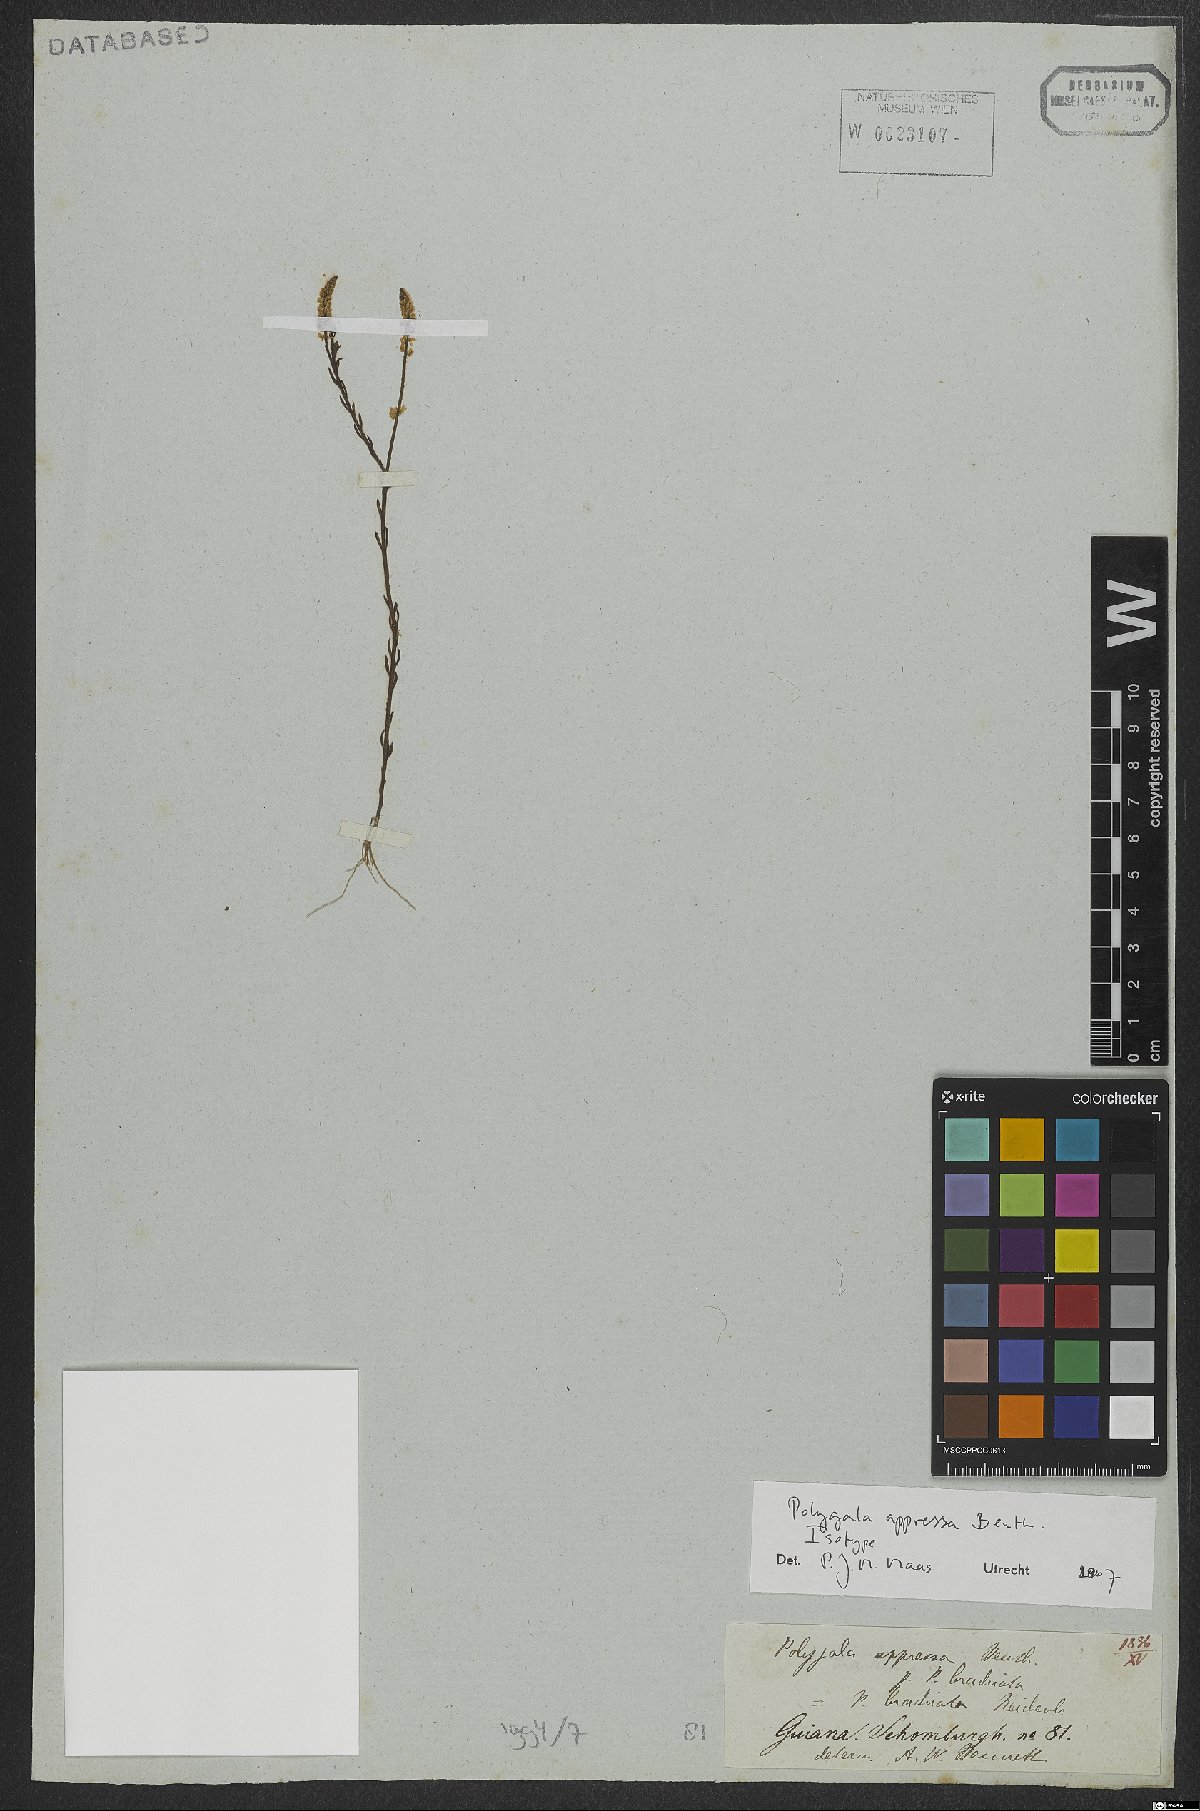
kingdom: Plantae
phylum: Tracheophyta
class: Magnoliopsida
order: Fabales
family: Polygalaceae
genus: Polygala
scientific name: Polygala appressa
